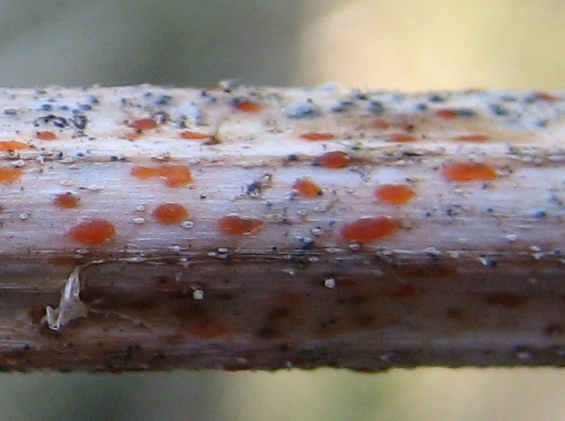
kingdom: Fungi
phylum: Ascomycota
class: Leotiomycetes
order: Helotiales
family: Calloriaceae
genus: Calloria
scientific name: Calloria urticae
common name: nælde-orangeskive
